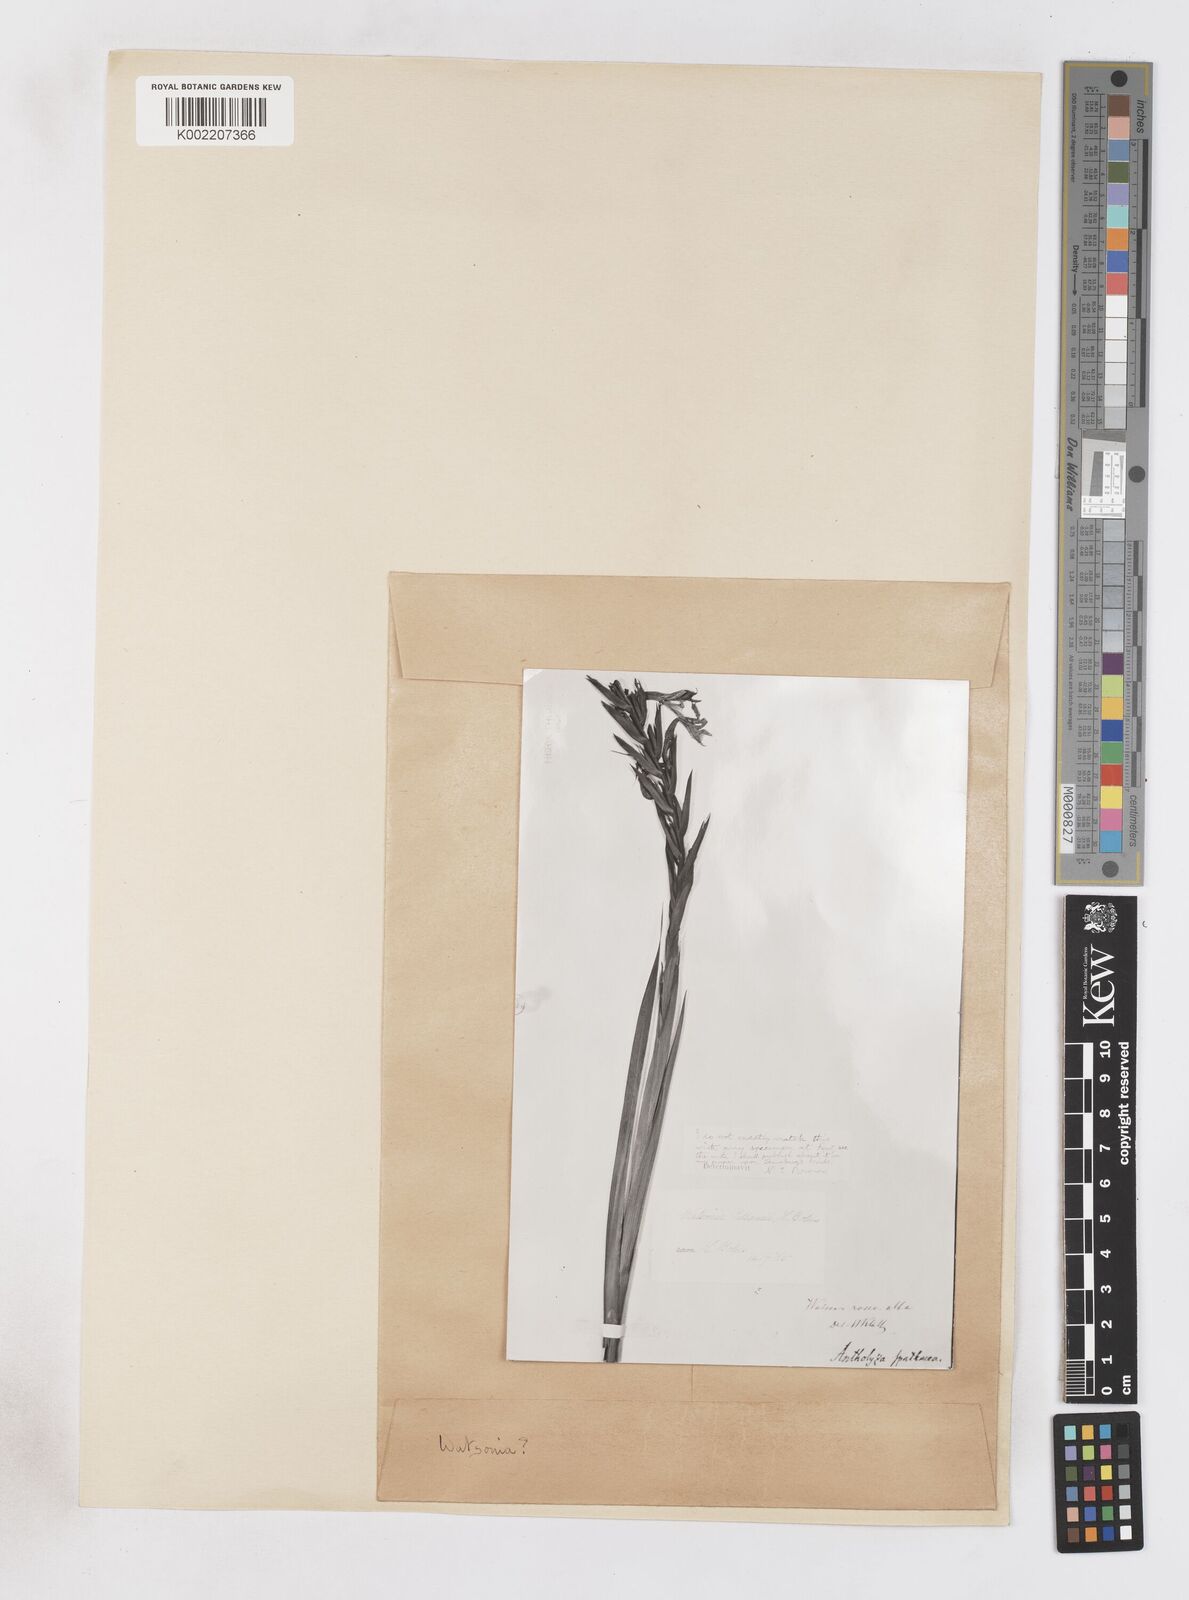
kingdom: Plantae
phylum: Tracheophyta
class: Liliopsida
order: Asparagales
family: Iridaceae
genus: Watsonia
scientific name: Watsonia pillansii
